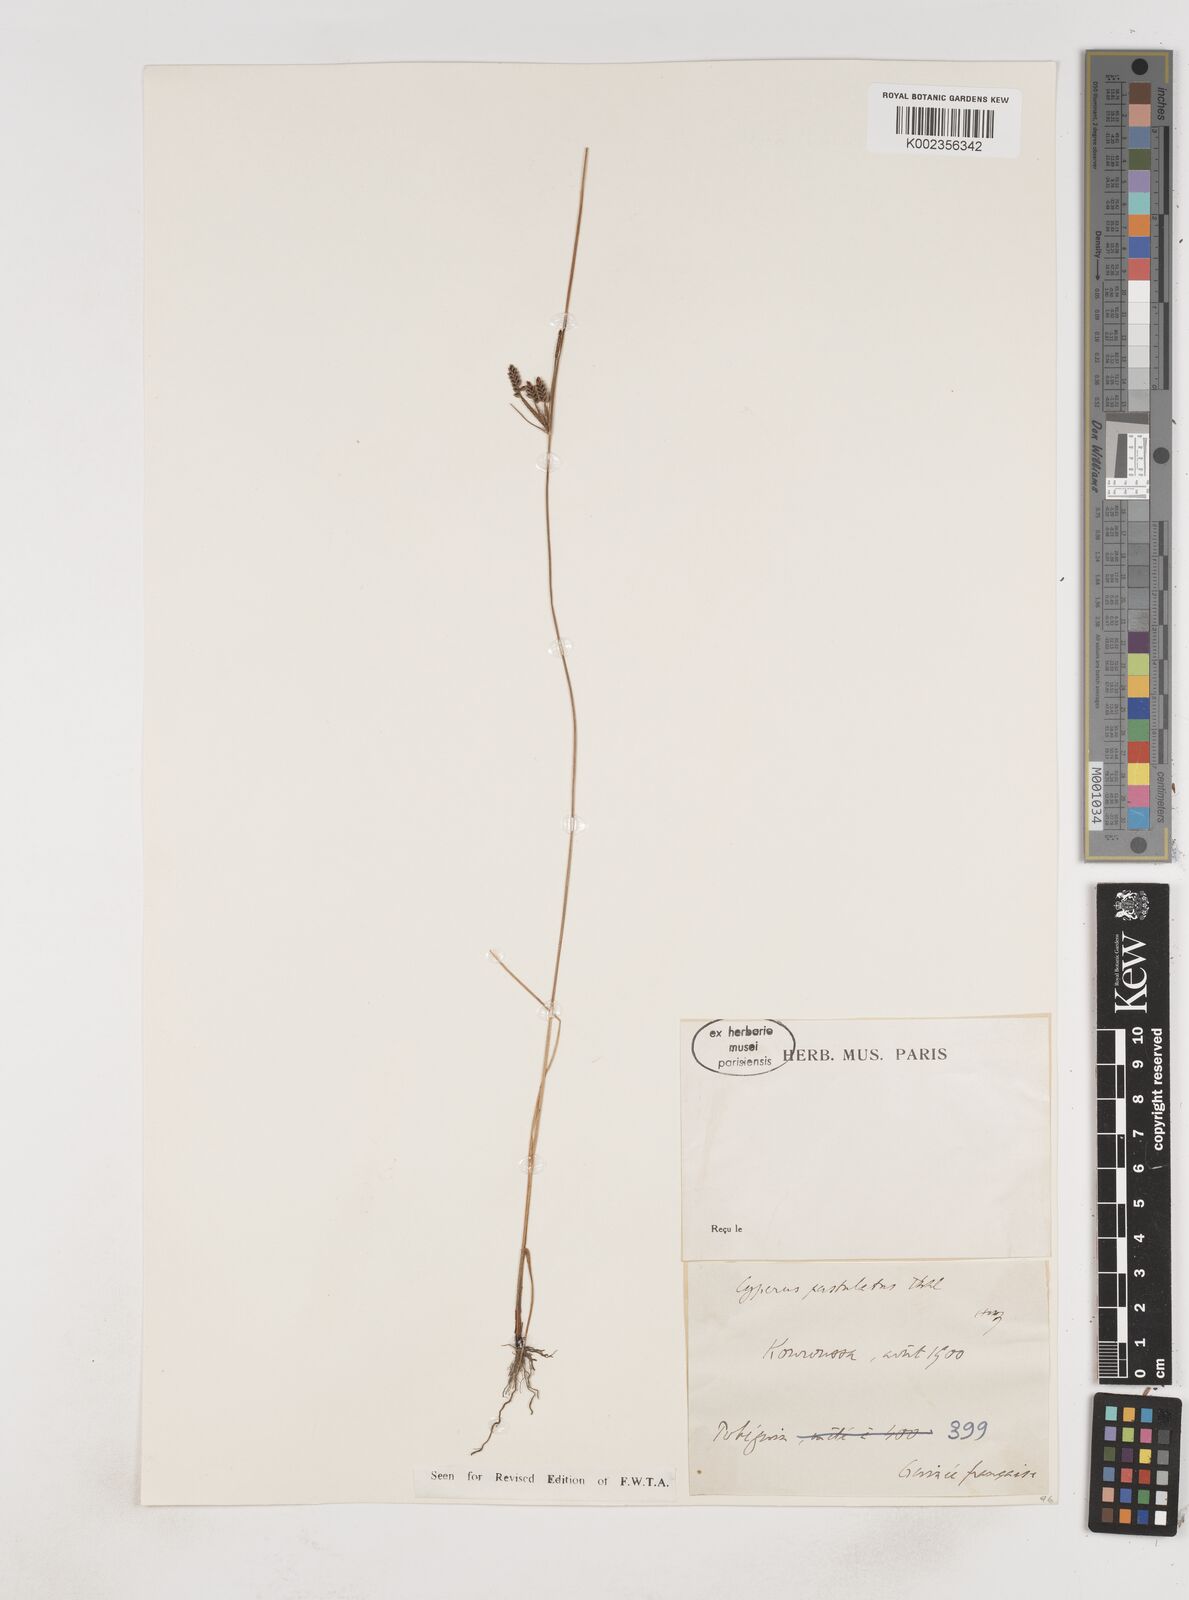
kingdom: Plantae
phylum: Tracheophyta
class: Liliopsida
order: Poales
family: Cyperaceae
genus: Cyperus
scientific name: Cyperus pustulatus
